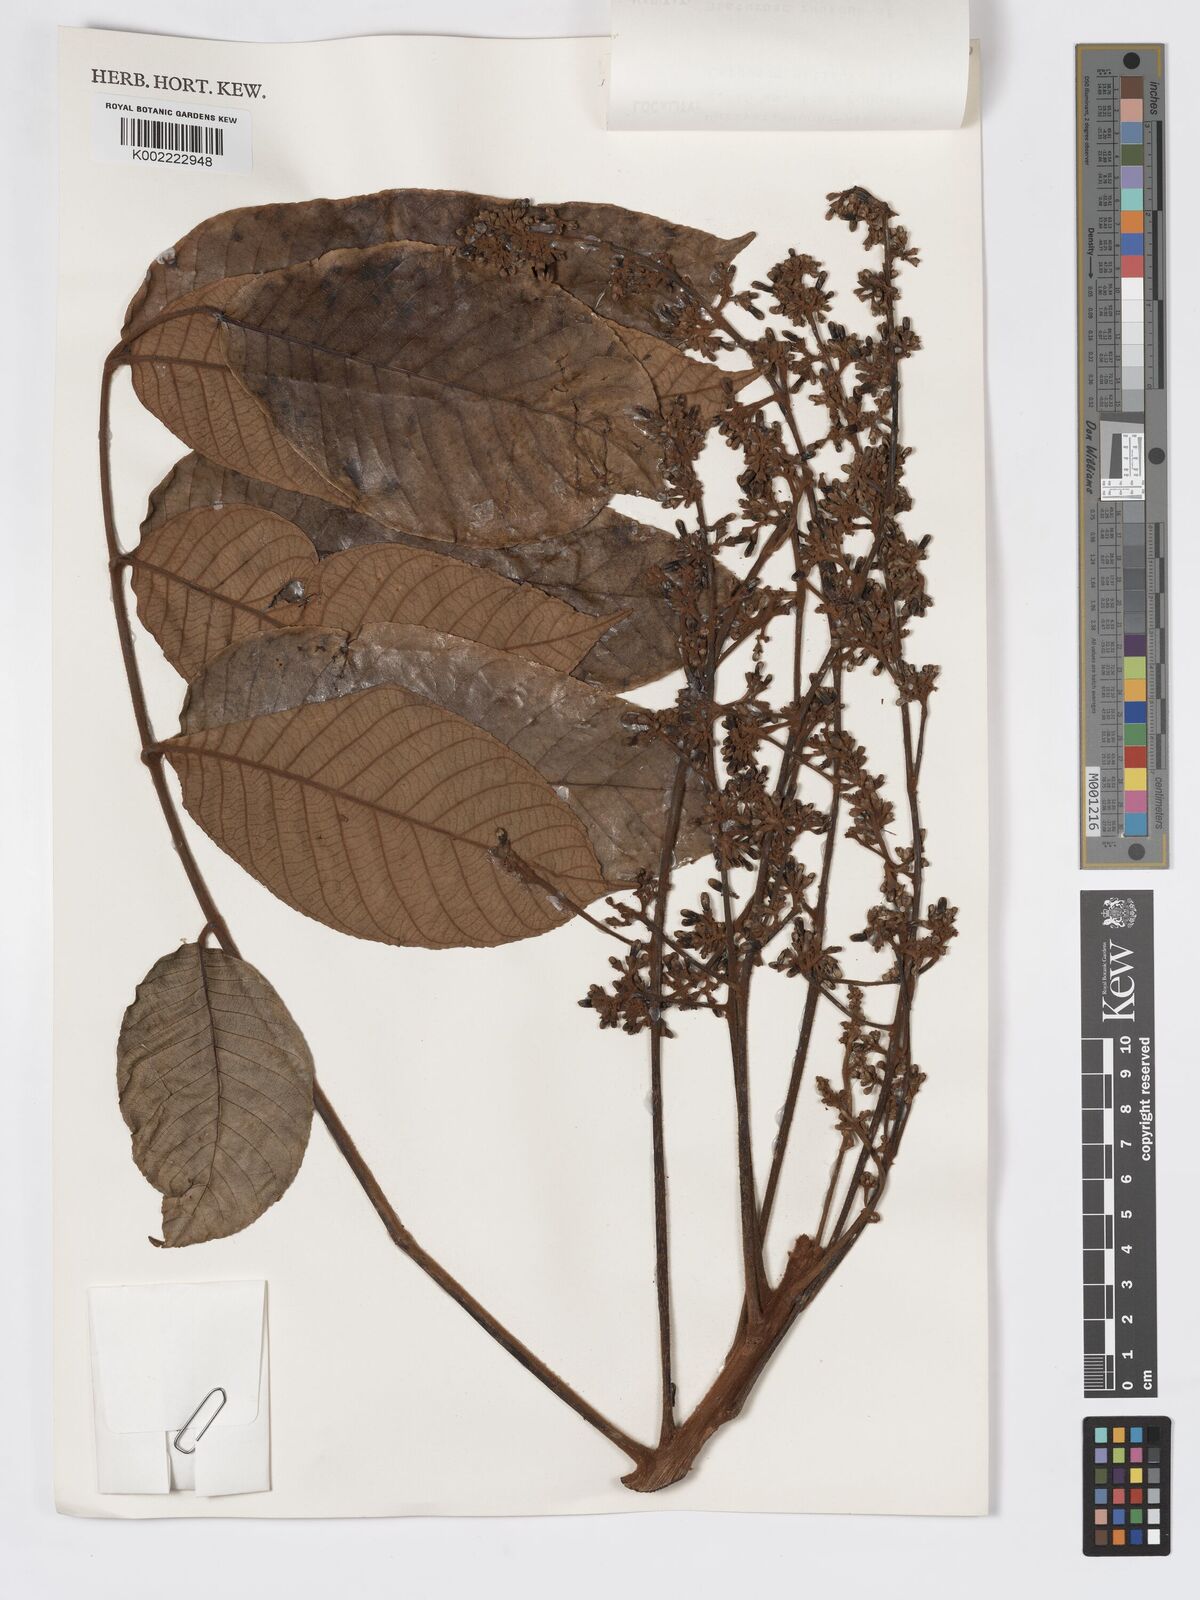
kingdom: Plantae
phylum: Tracheophyta
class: Magnoliopsida
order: Sapindales
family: Burseraceae
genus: Canarium
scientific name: Canarium strictum
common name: Indian white-mahogany
